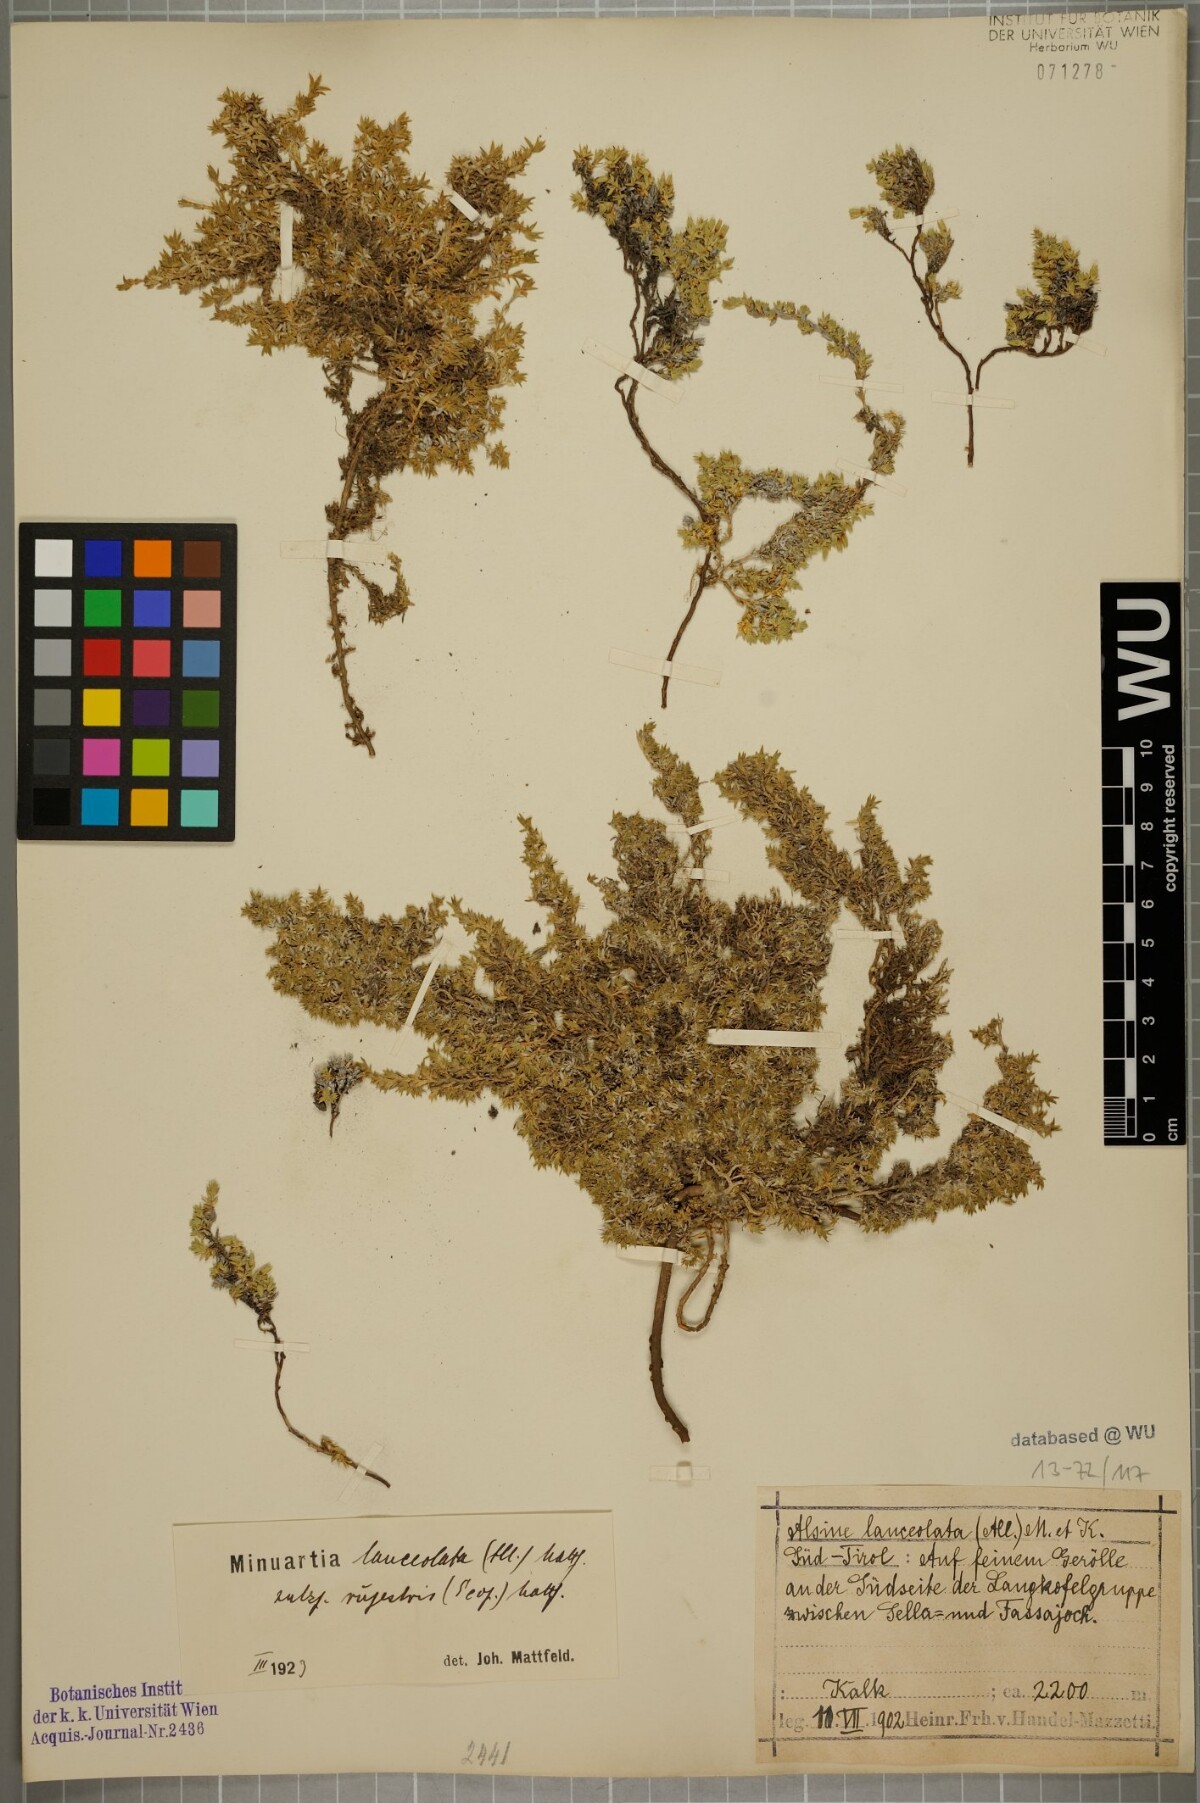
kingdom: Plantae
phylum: Tracheophyta
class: Magnoliopsida
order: Caryophyllales
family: Caryophyllaceae
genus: Facchinia
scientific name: Facchinia rupestris
